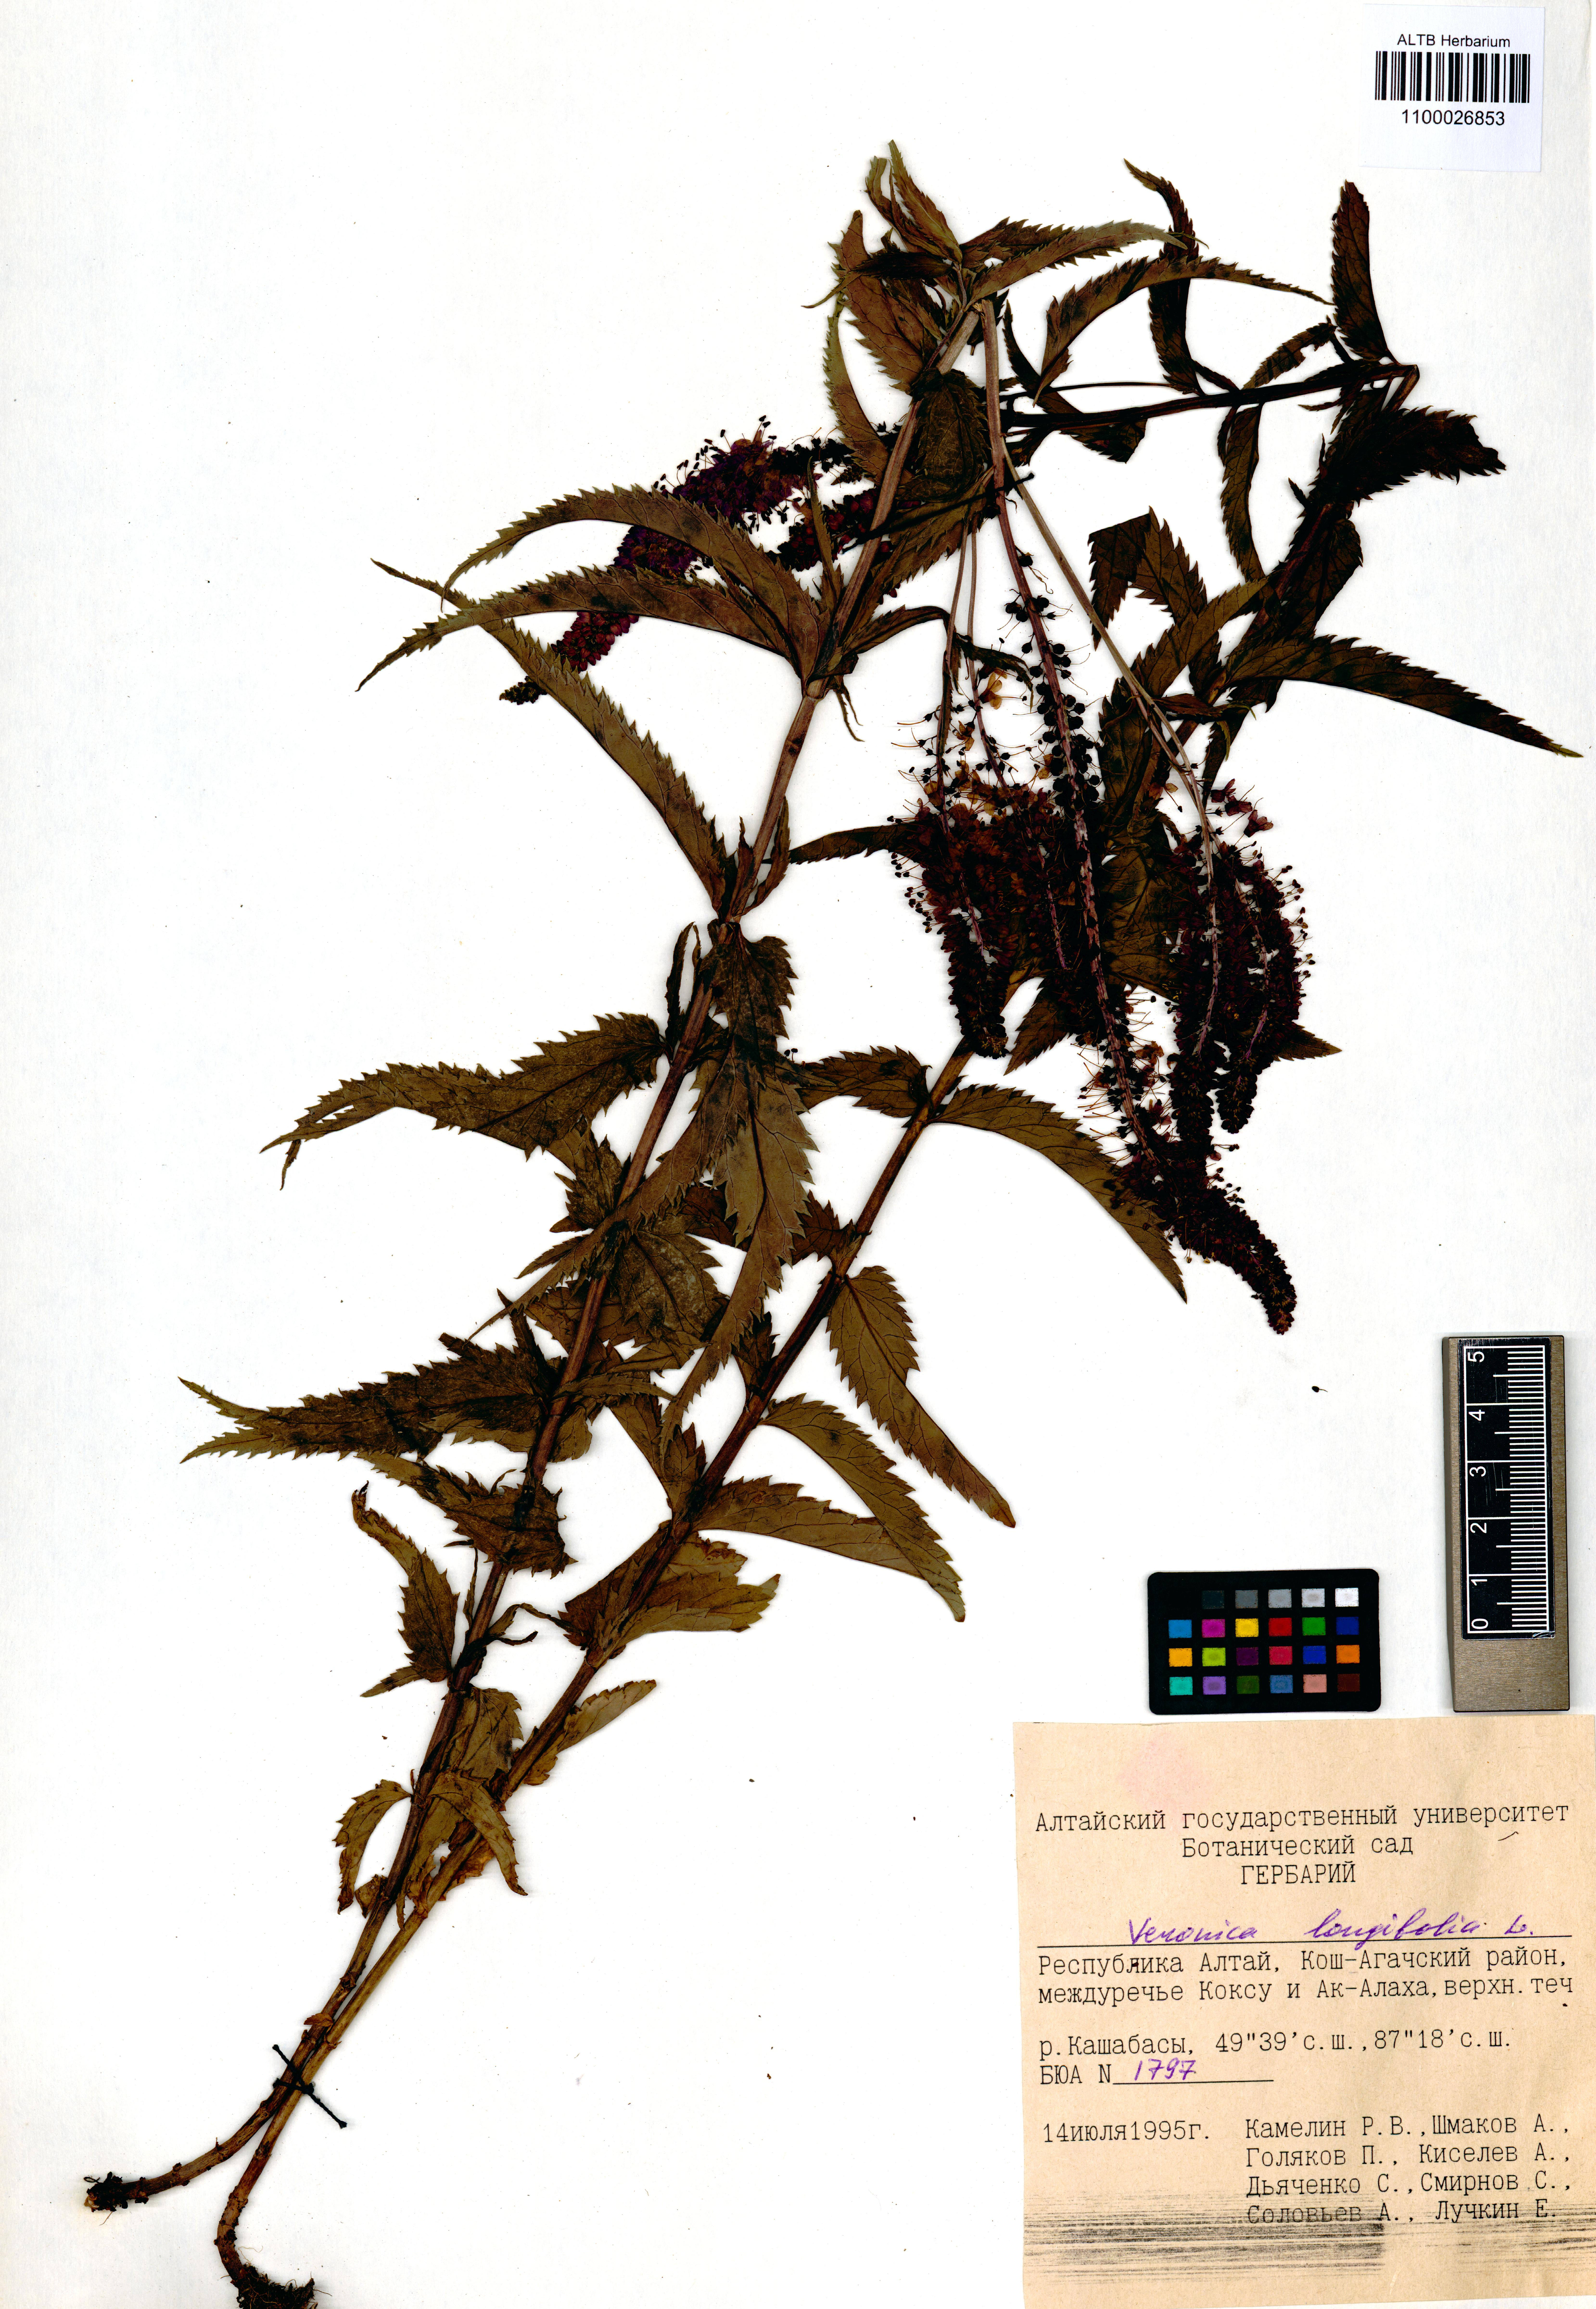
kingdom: Plantae
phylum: Tracheophyta
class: Magnoliopsida
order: Lamiales
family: Plantaginaceae
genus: Veronica
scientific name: Veronica longifolia
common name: Garden speedwell
